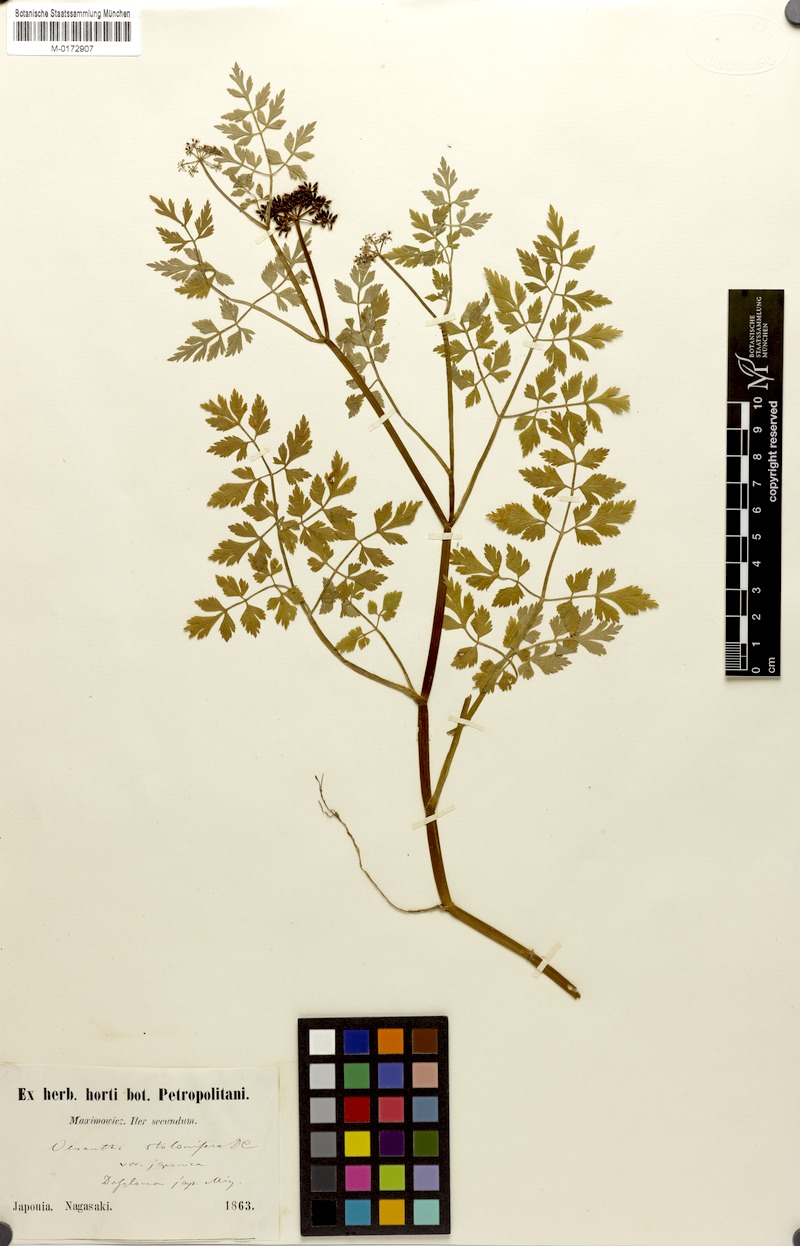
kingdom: Plantae
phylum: Tracheophyta
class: Magnoliopsida
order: Apiales
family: Apiaceae
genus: Oenanthe
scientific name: Oenanthe javanica
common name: Java water-dropwort
